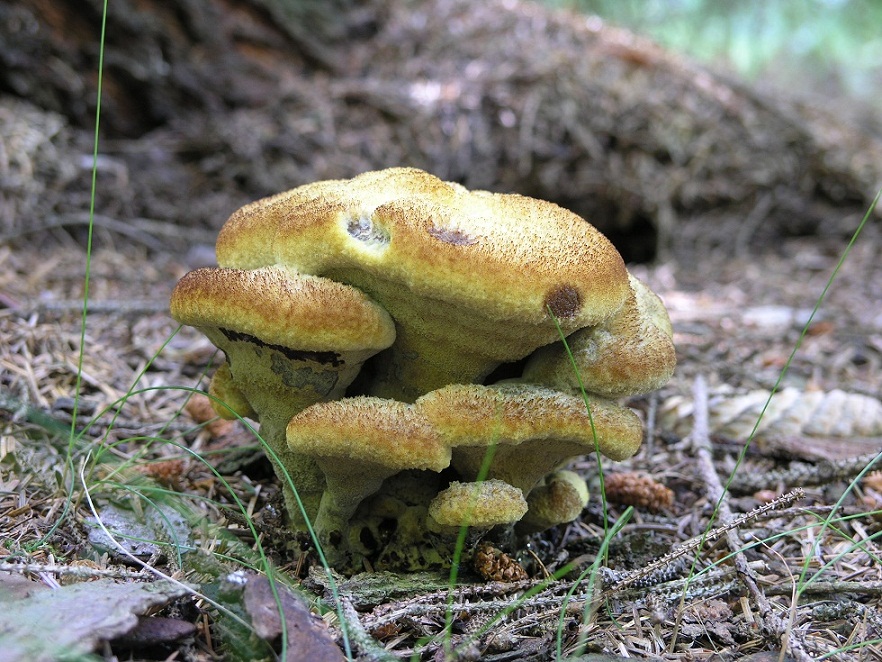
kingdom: Fungi
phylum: Basidiomycota
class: Agaricomycetes
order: Polyporales
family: Laetiporaceae
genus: Phaeolus
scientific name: Phaeolus schweinitzii
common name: brunporesvamp
